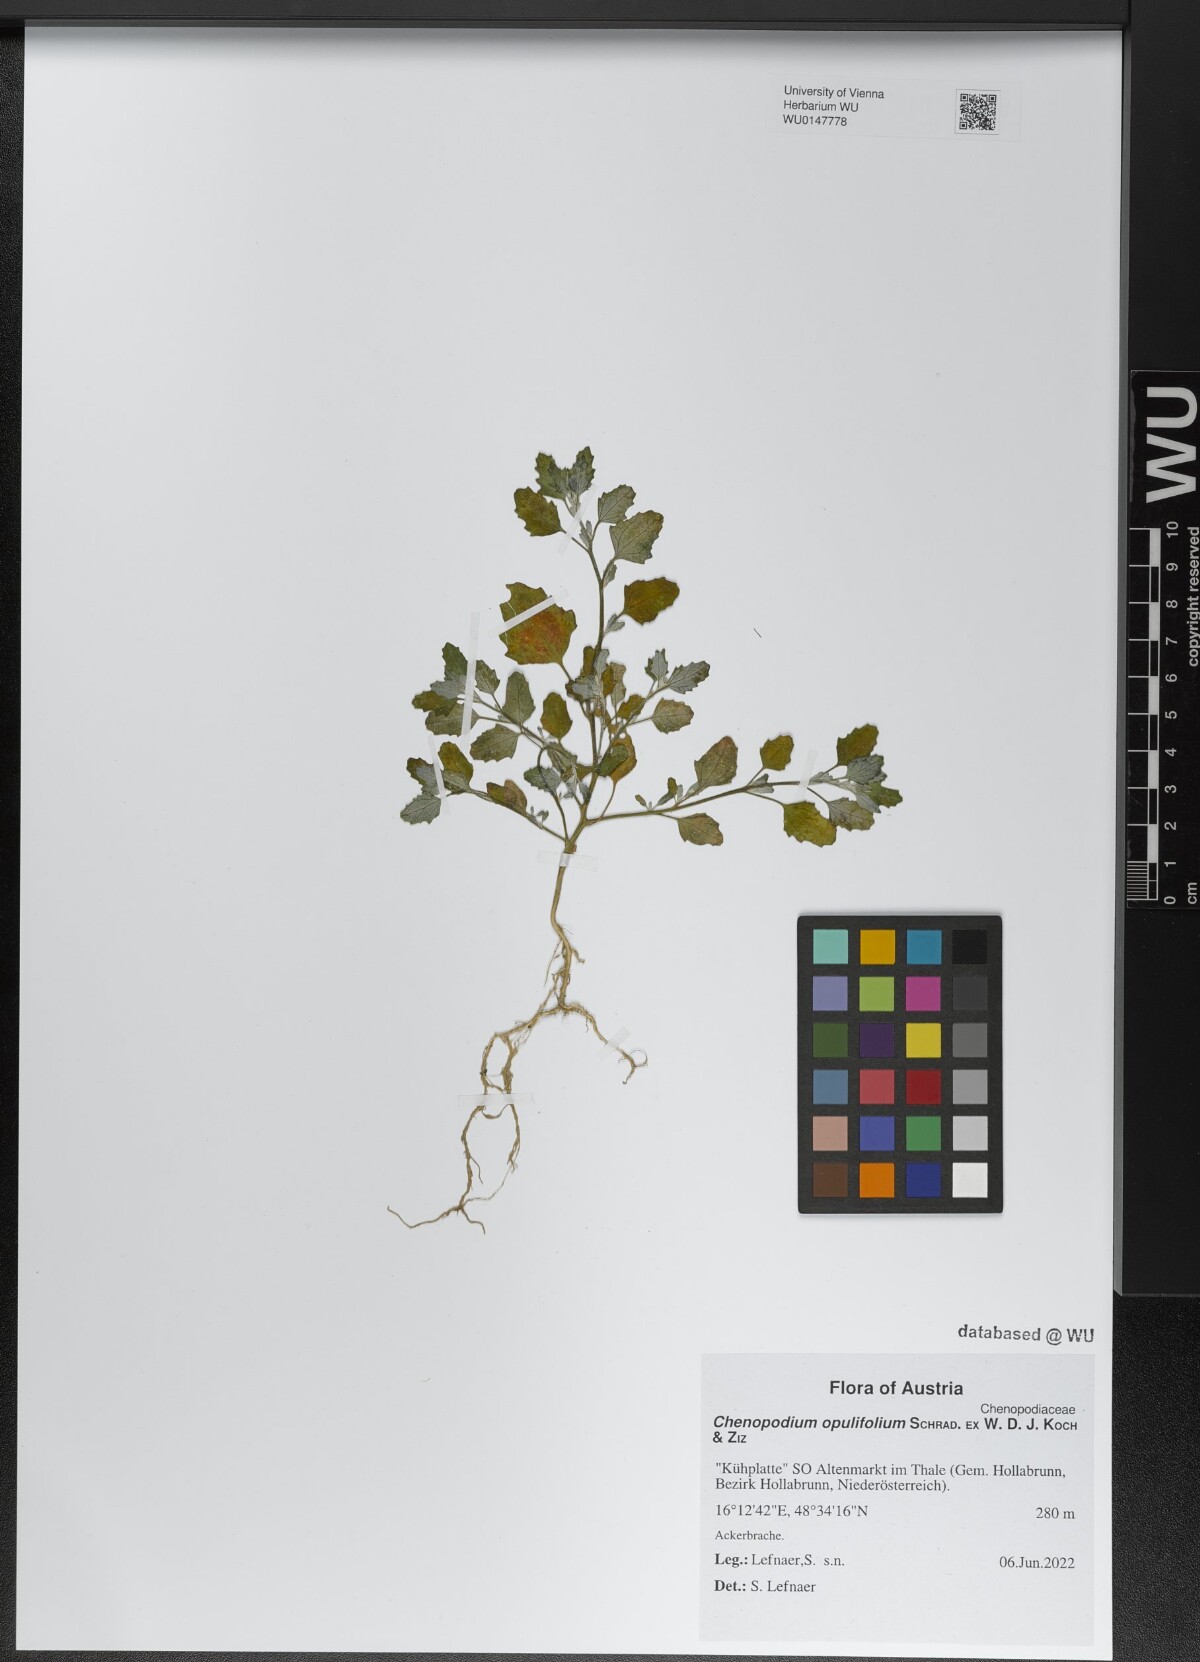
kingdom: Plantae
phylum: Tracheophyta
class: Magnoliopsida
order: Caryophyllales
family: Amaranthaceae
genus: Chenopodium
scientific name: Chenopodium opulifolium
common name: Grey goosefoot
